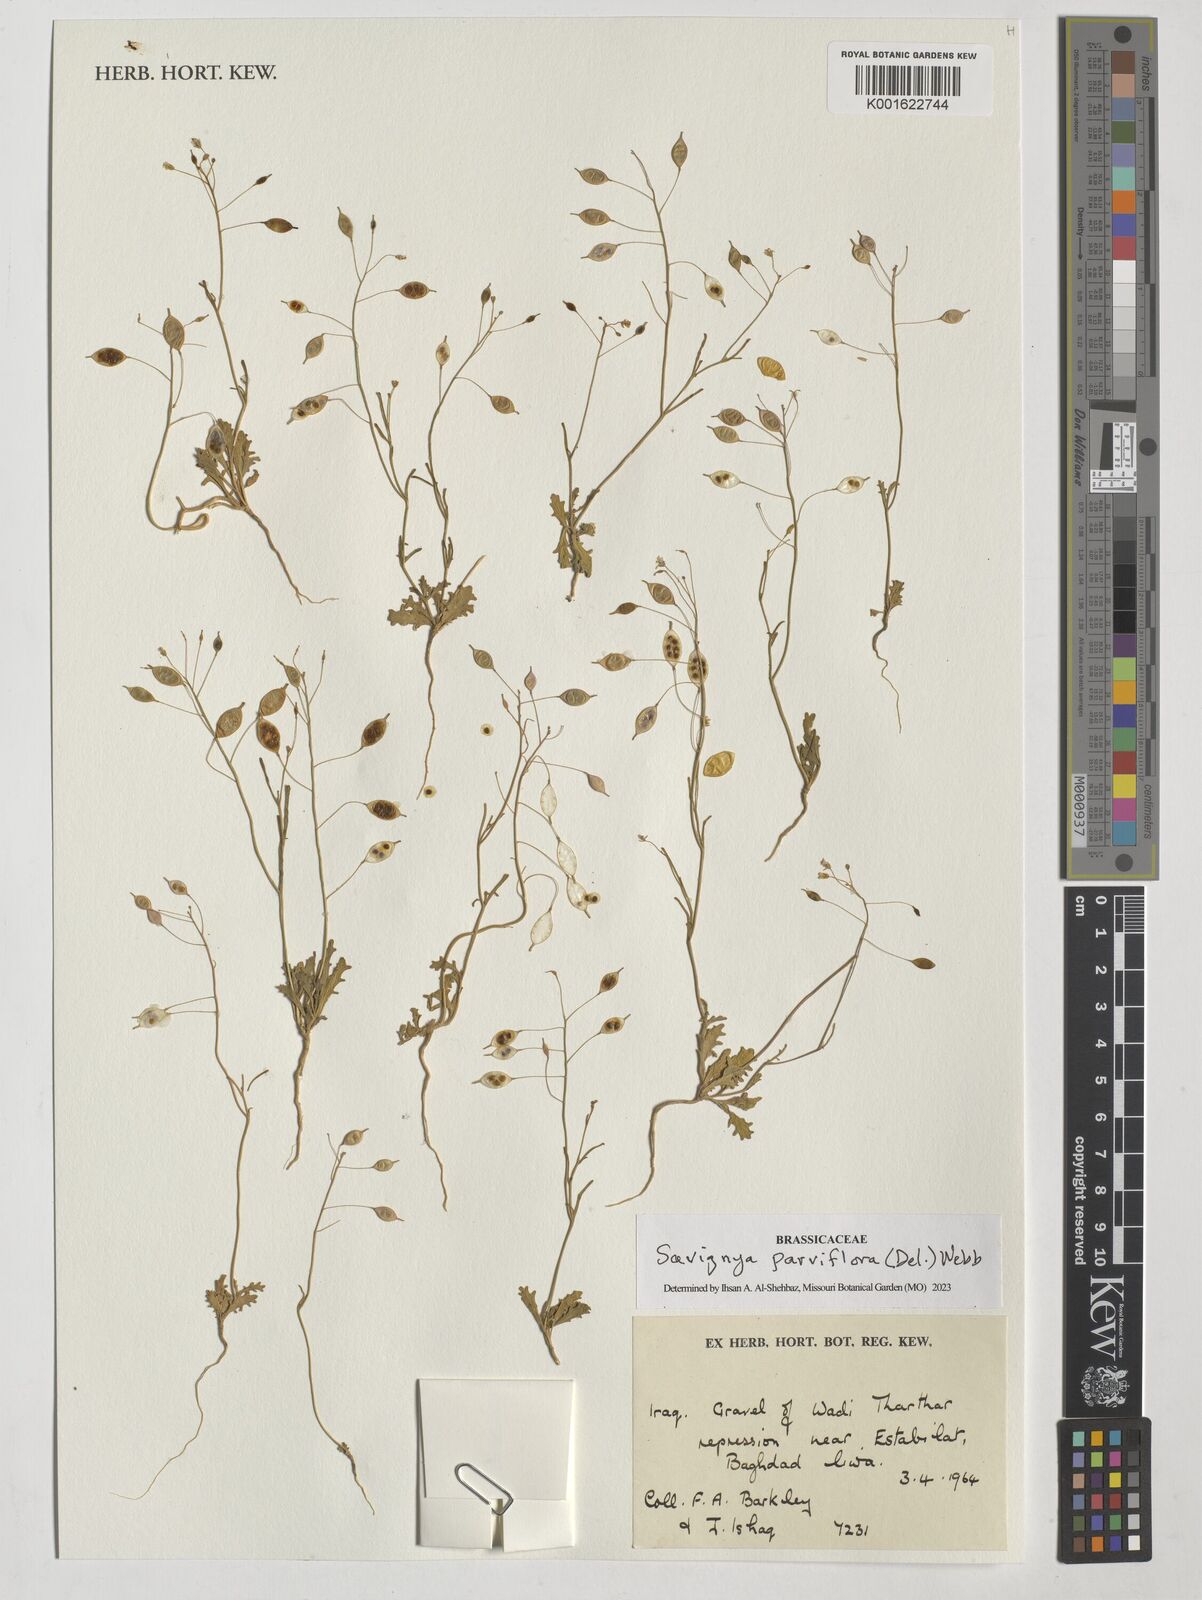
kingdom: Plantae
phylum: Tracheophyta
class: Magnoliopsida
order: Brassicales
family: Brassicaceae
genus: Savignya
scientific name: Savignya parviflora
